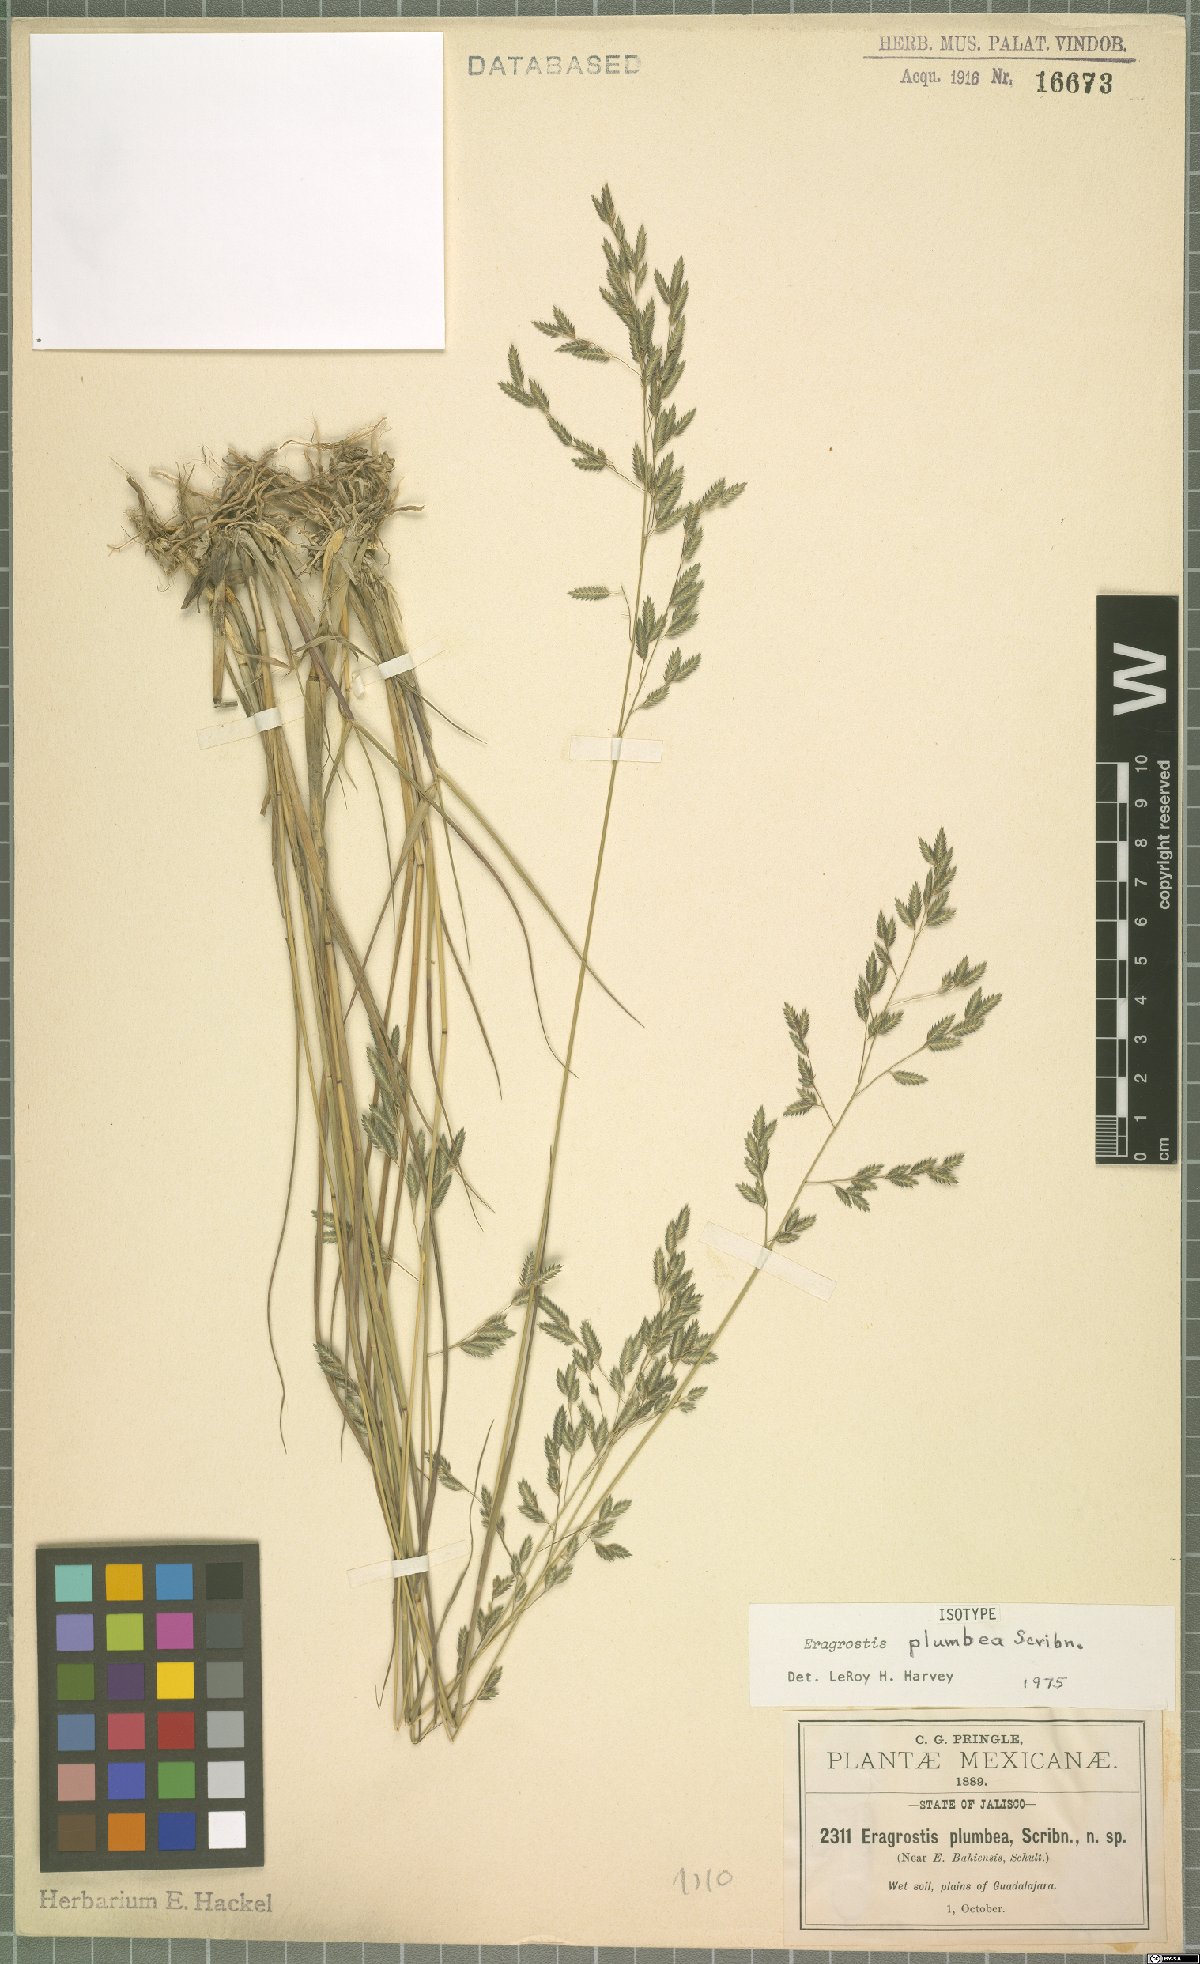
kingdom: Plantae
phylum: Tracheophyta
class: Liliopsida
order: Poales
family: Poaceae
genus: Eragrostis
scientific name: Eragrostis plumbea
